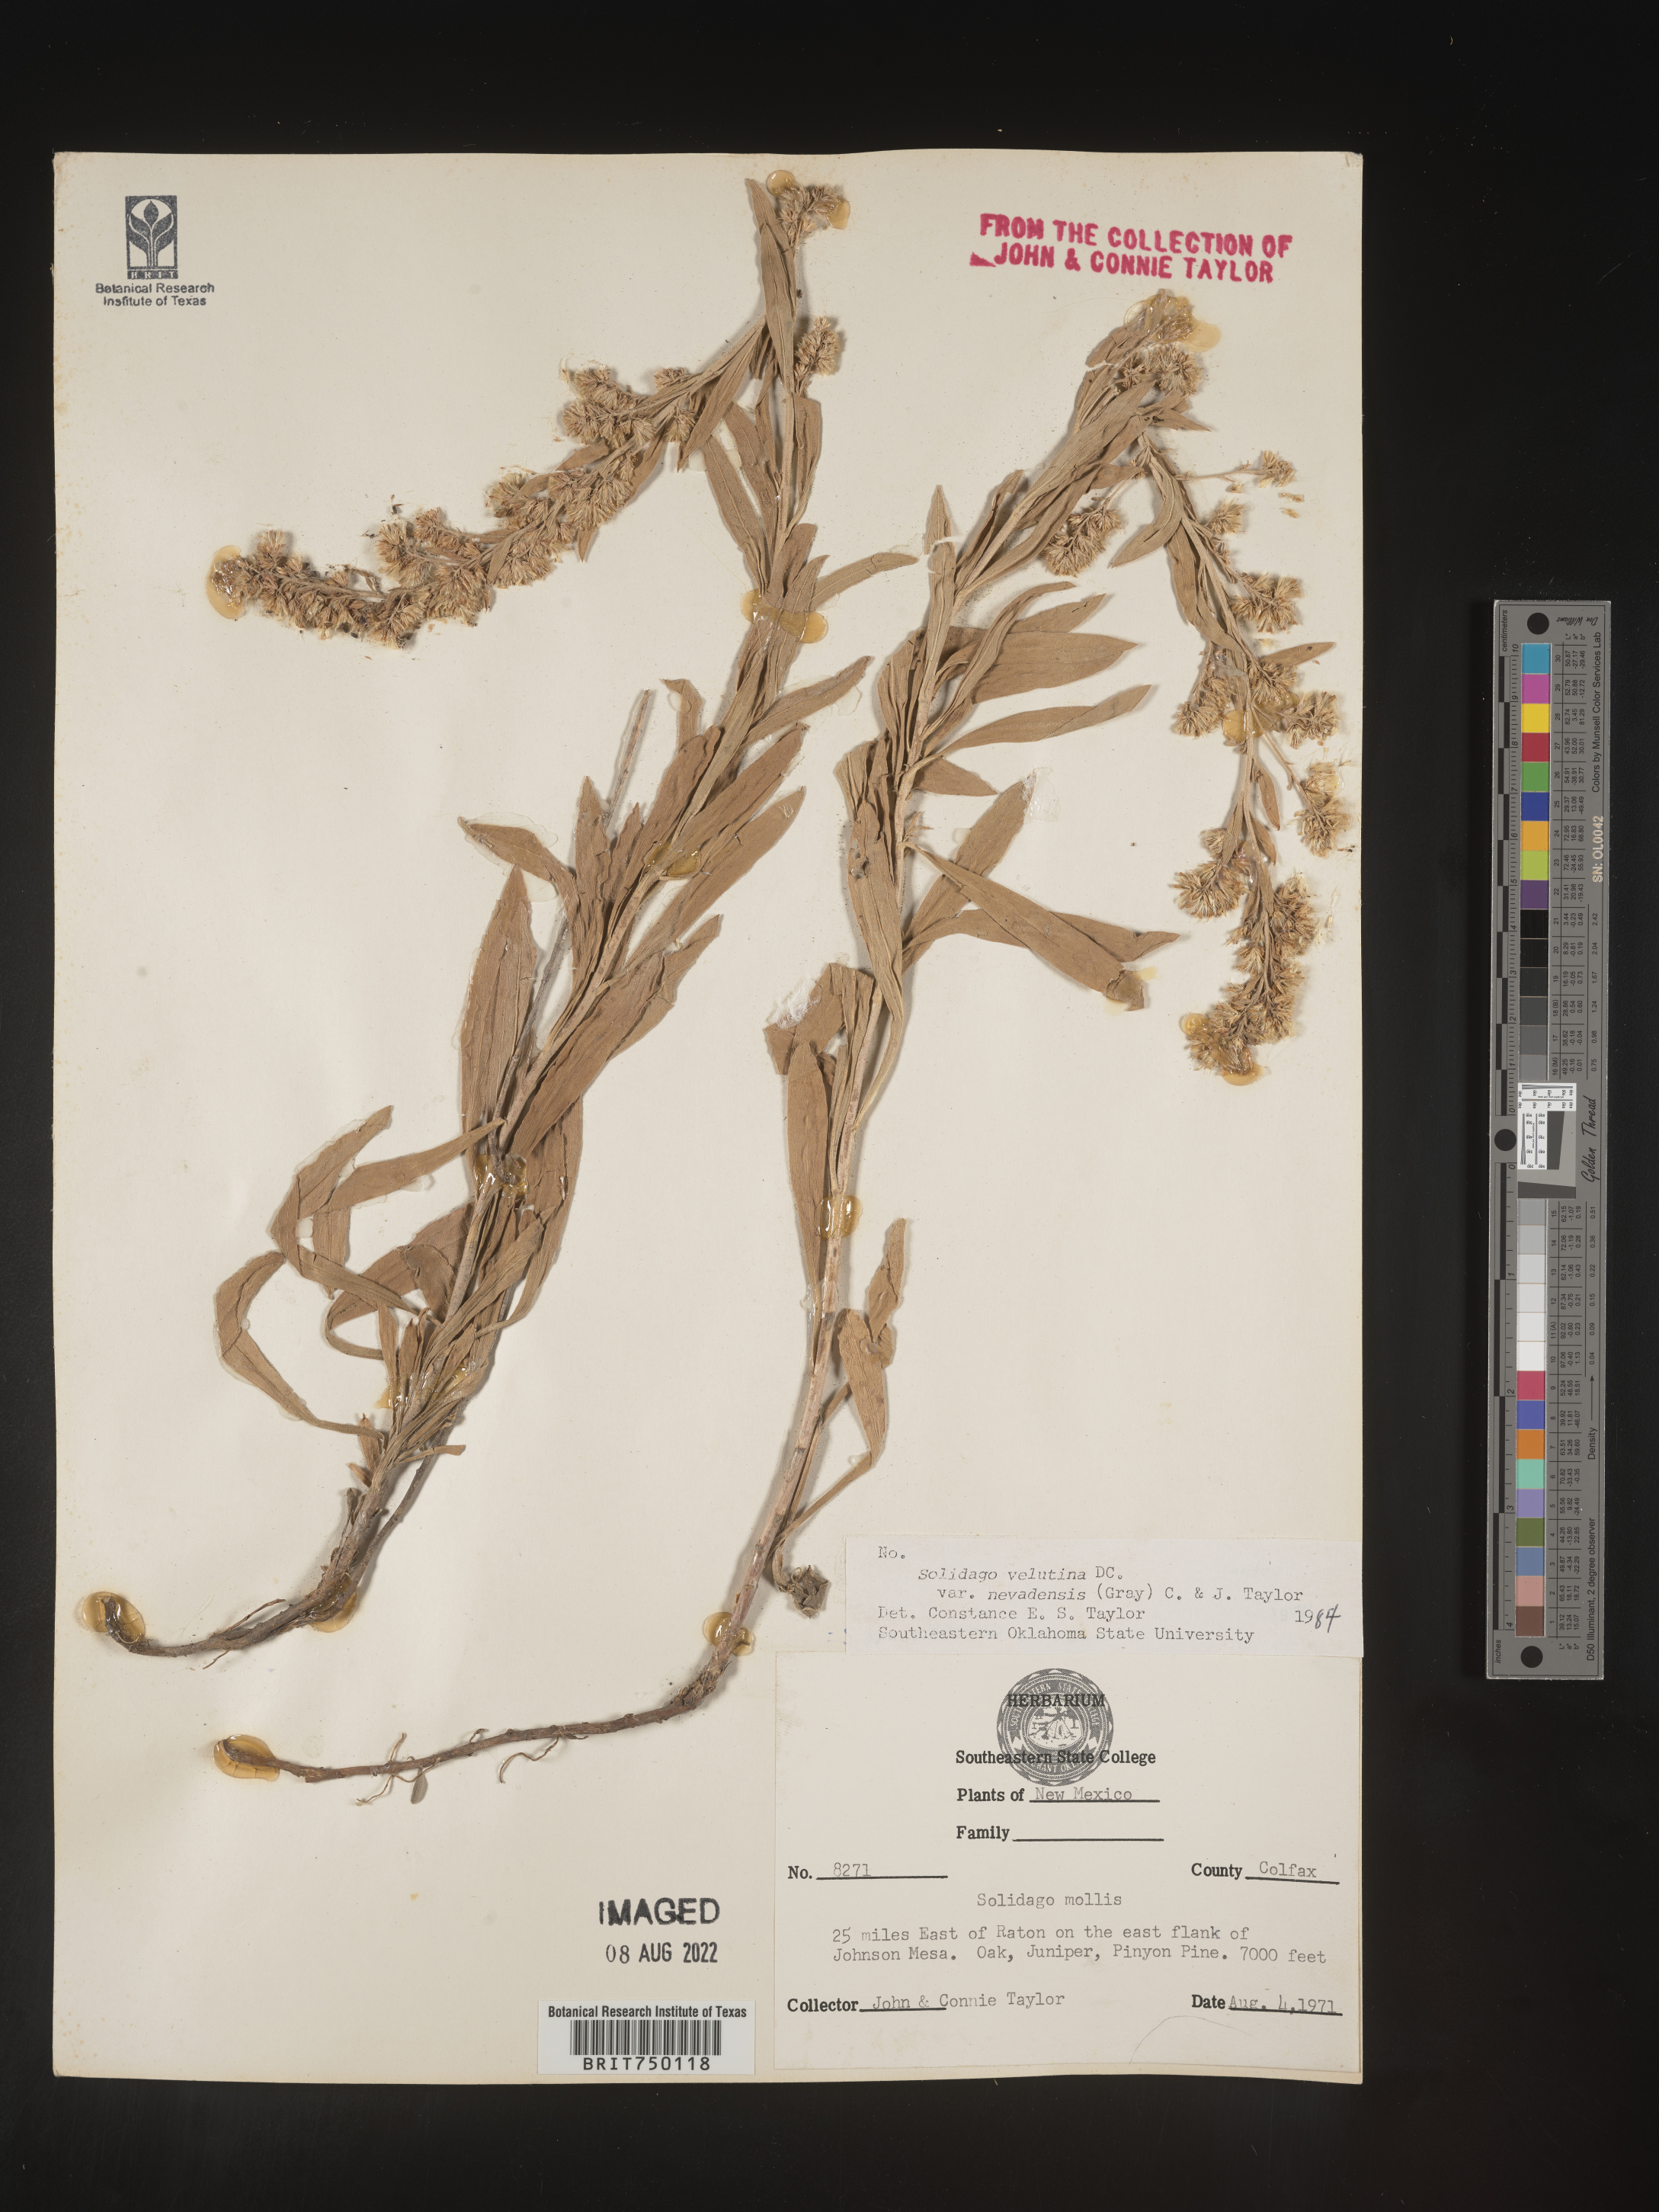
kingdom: Plantae
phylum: Tracheophyta
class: Magnoliopsida
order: Asterales
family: Asteraceae
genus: Solidago
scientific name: Solidago velutina
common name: Three-nerve goldenrod
